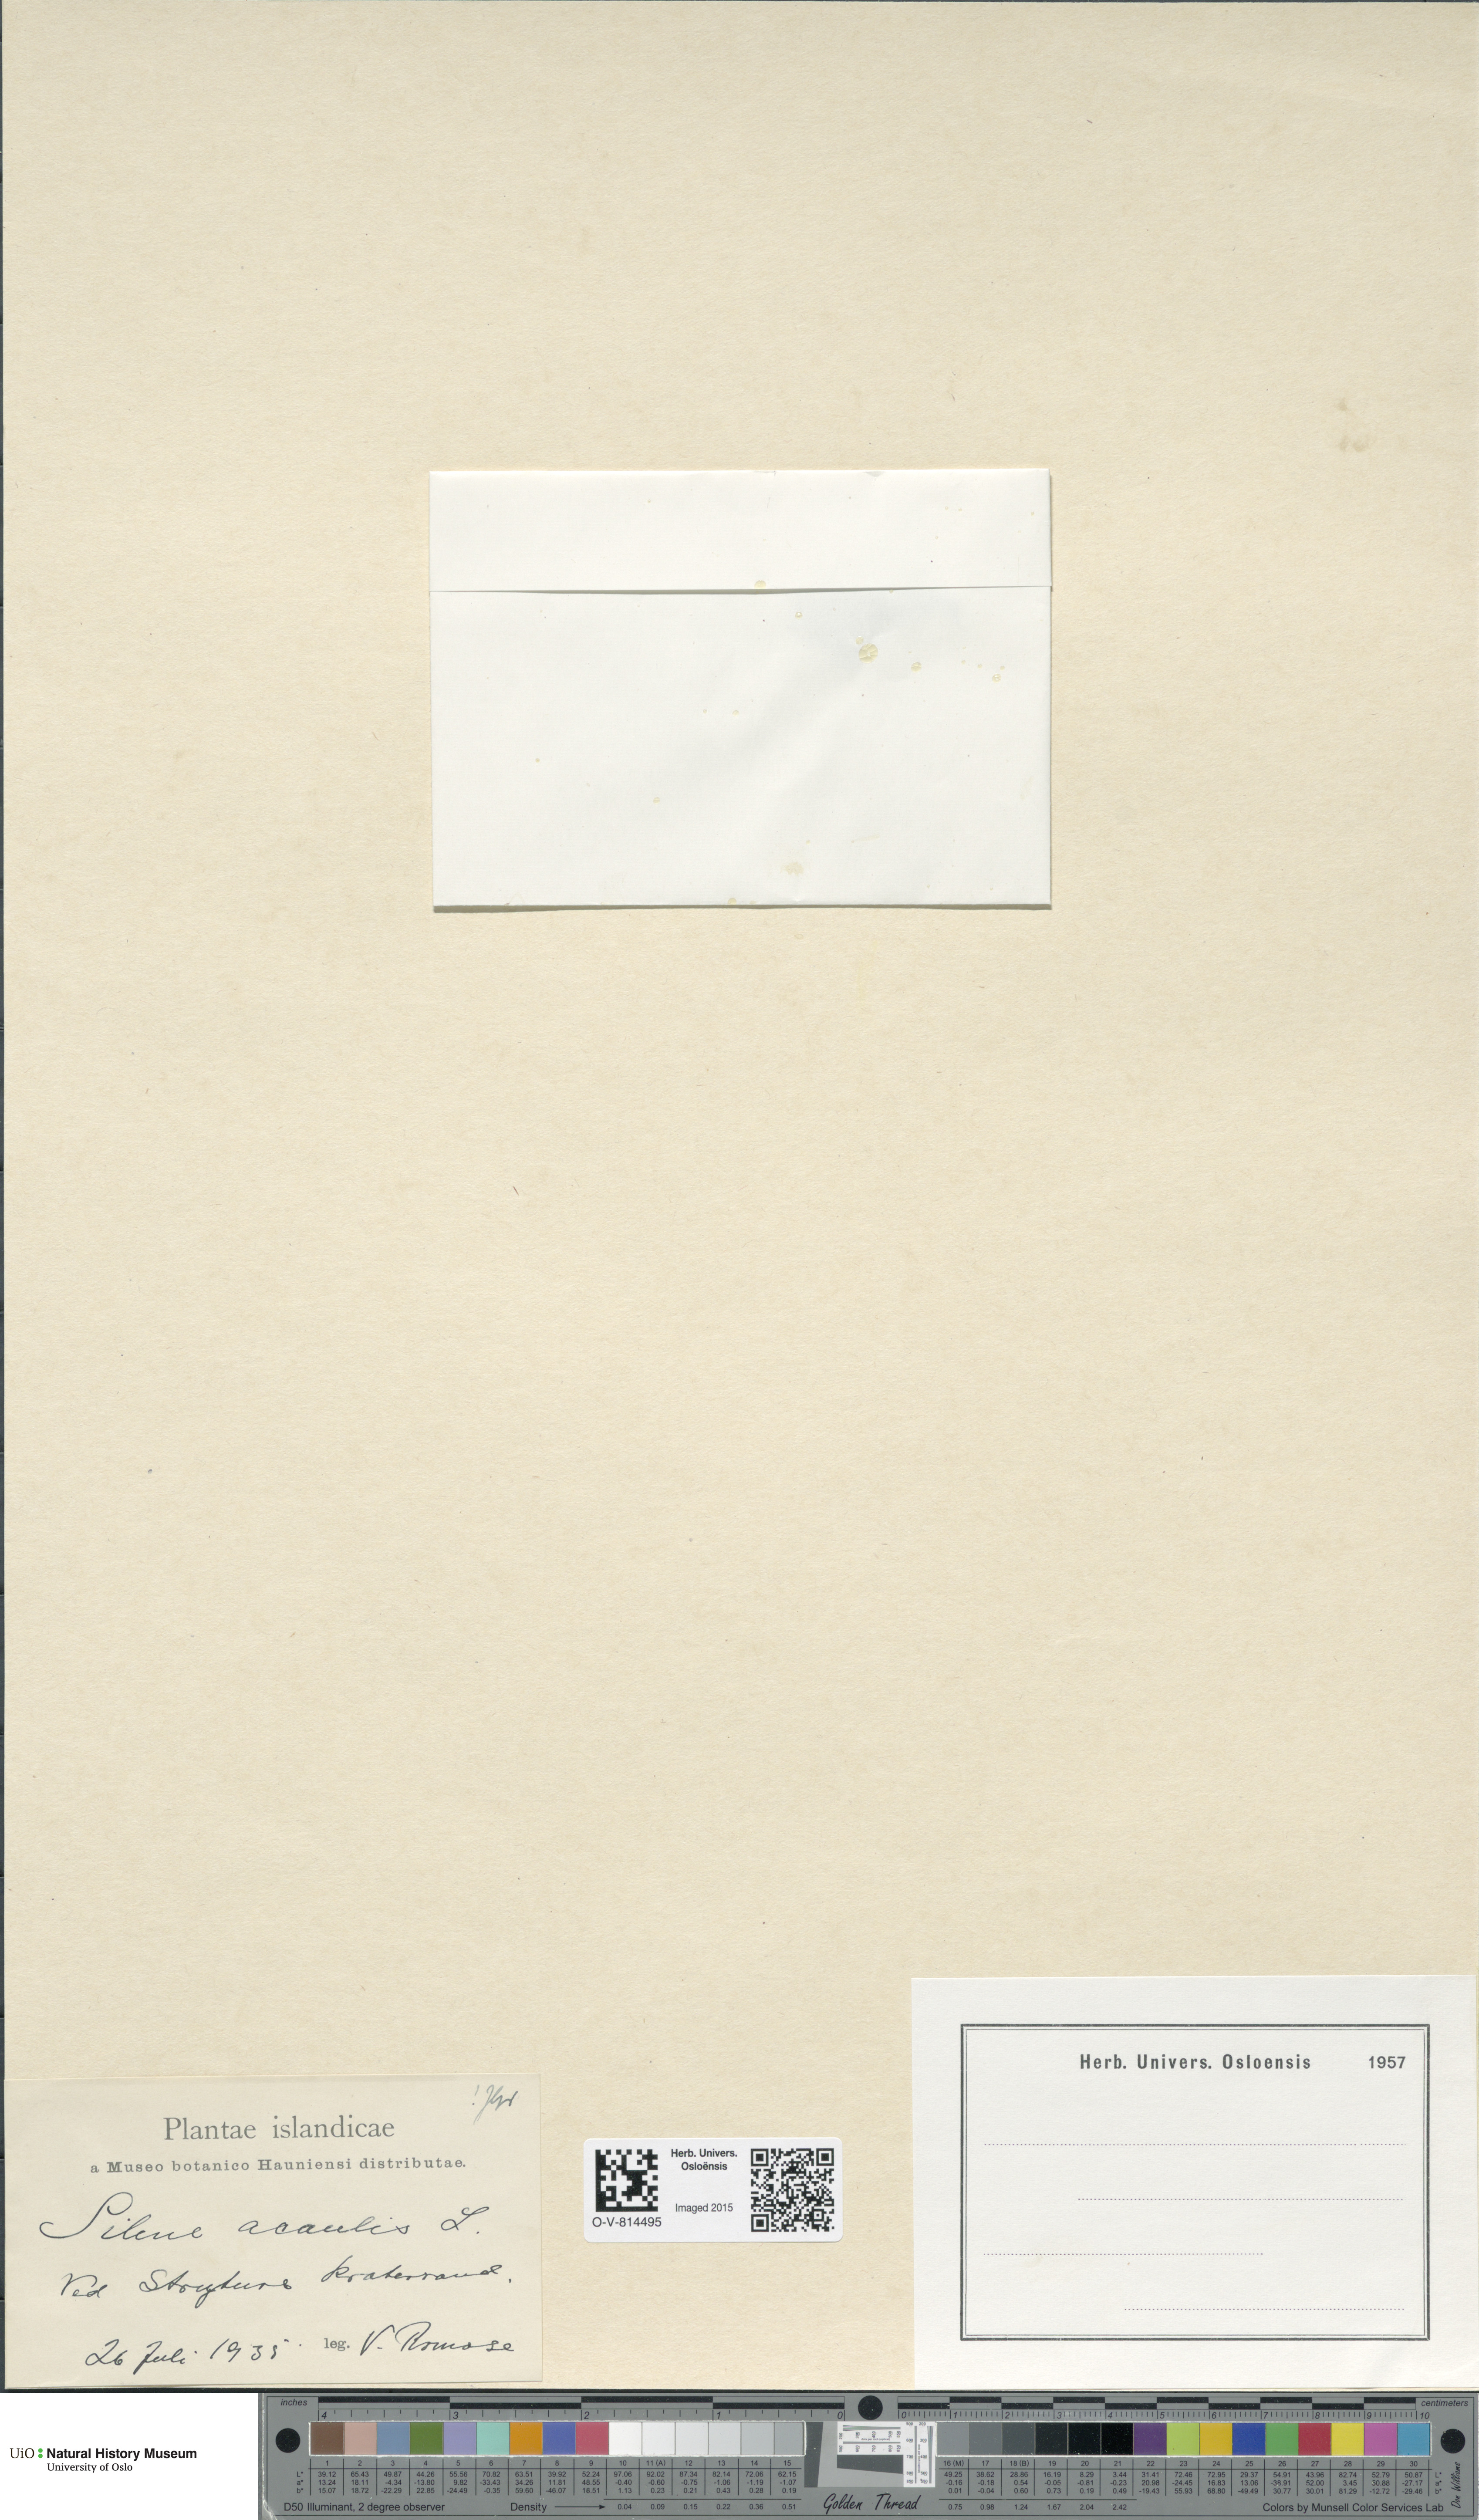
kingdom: Plantae
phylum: Tracheophyta
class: Magnoliopsida
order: Caryophyllales
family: Caryophyllaceae
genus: Silene
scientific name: Silene acaulis
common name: Moss campion
